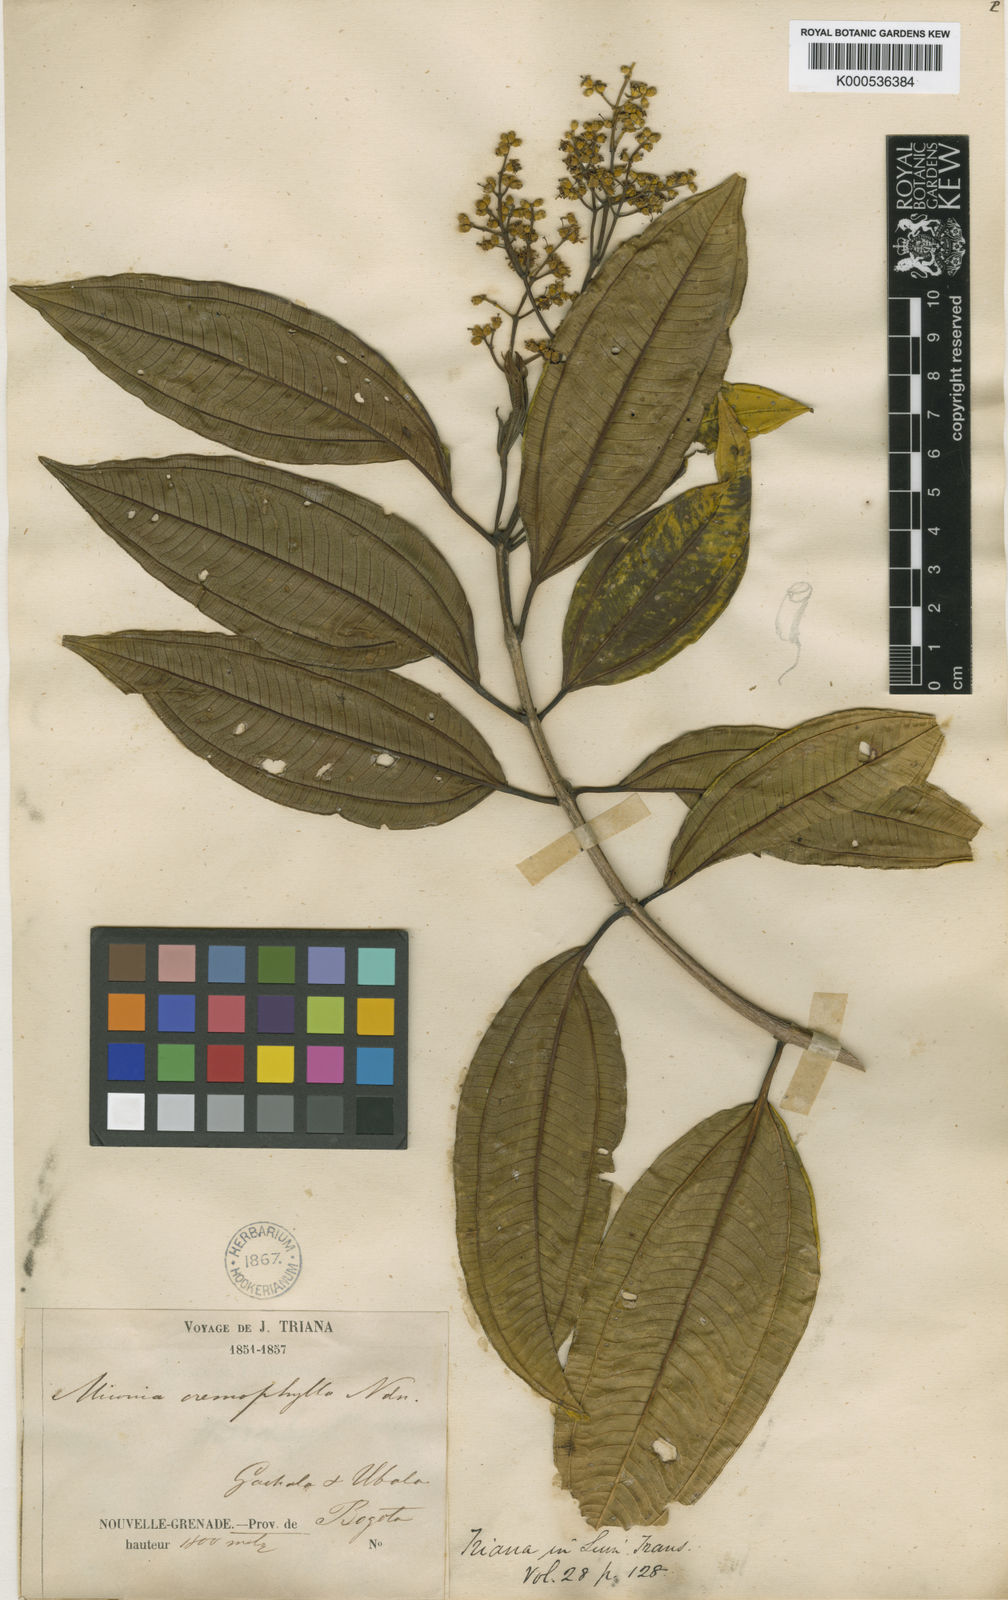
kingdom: Plantae
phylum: Tracheophyta
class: Magnoliopsida
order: Myrtales
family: Melastomataceae
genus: Miconia
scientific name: Miconia cremophylla
